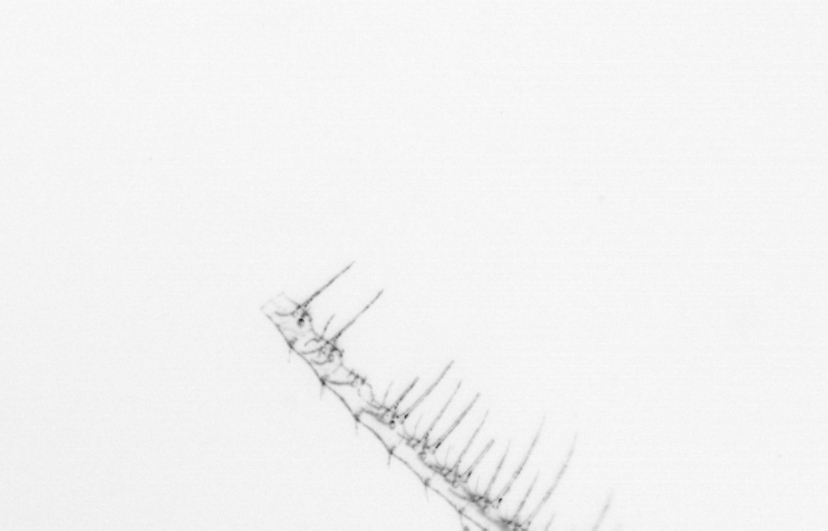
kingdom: Chromista
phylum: Ochrophyta
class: Bacillariophyceae
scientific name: Bacillariophyceae
